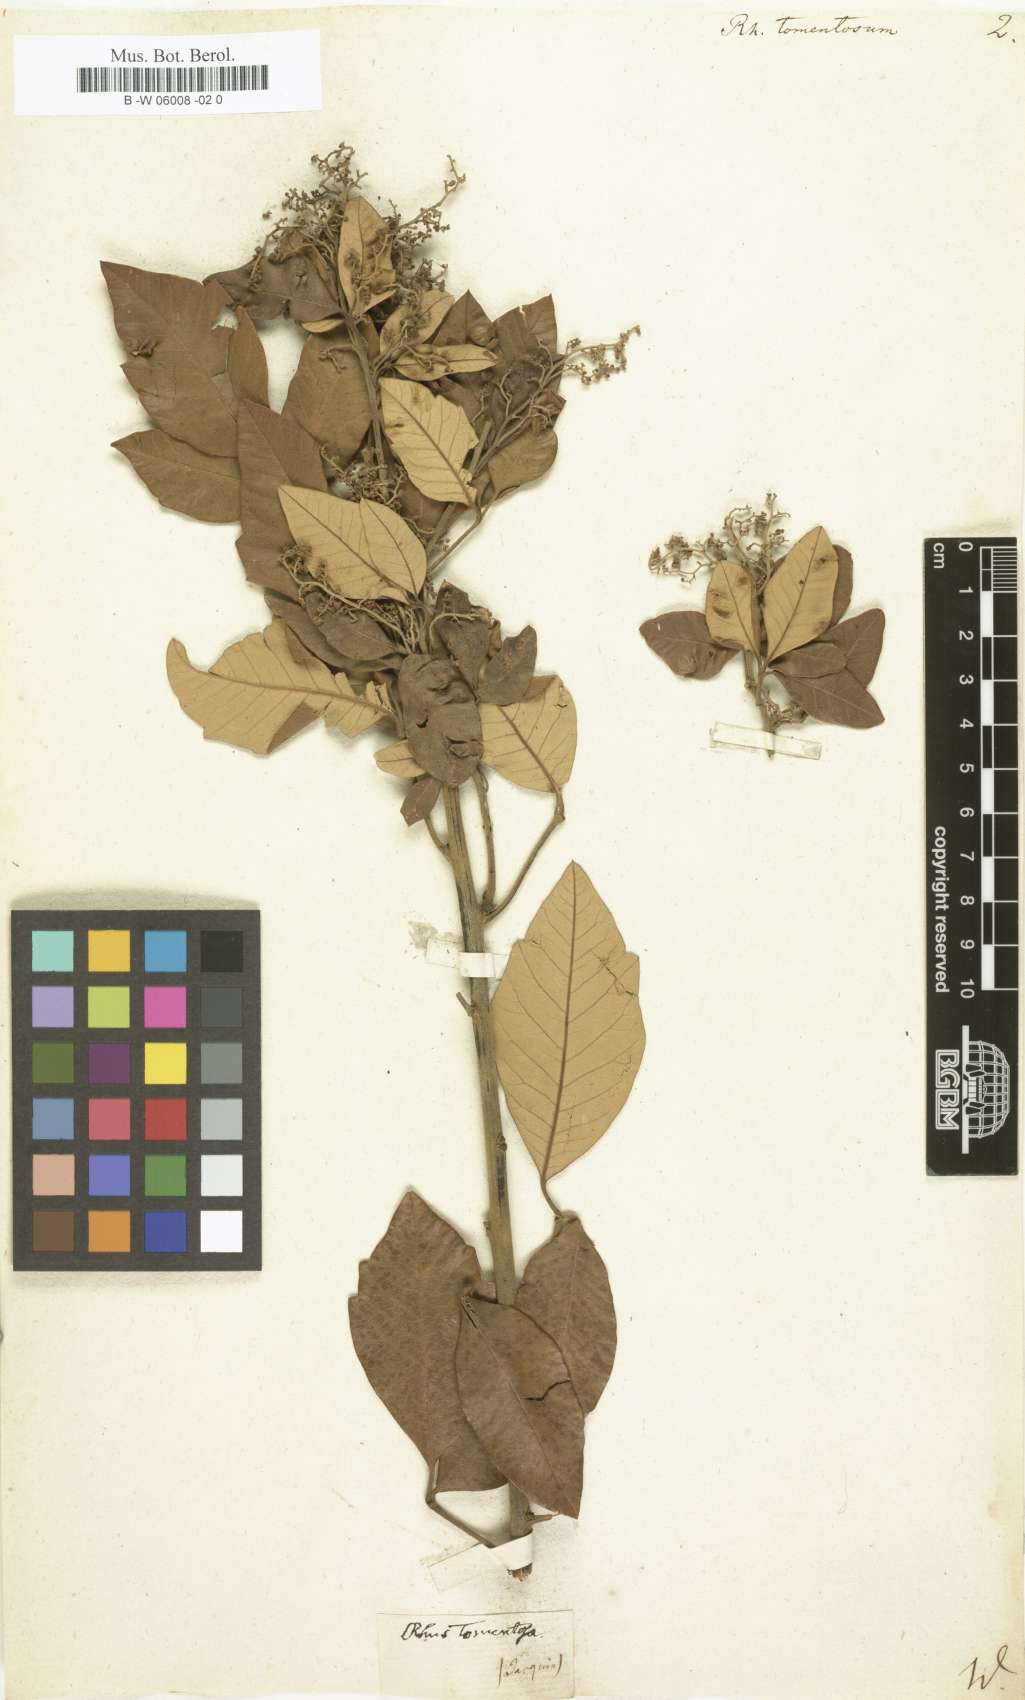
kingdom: Plantae
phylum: Tracheophyta
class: Magnoliopsida
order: Sapindales
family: Anacardiaceae
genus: Searsia
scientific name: Searsia tomentosa
